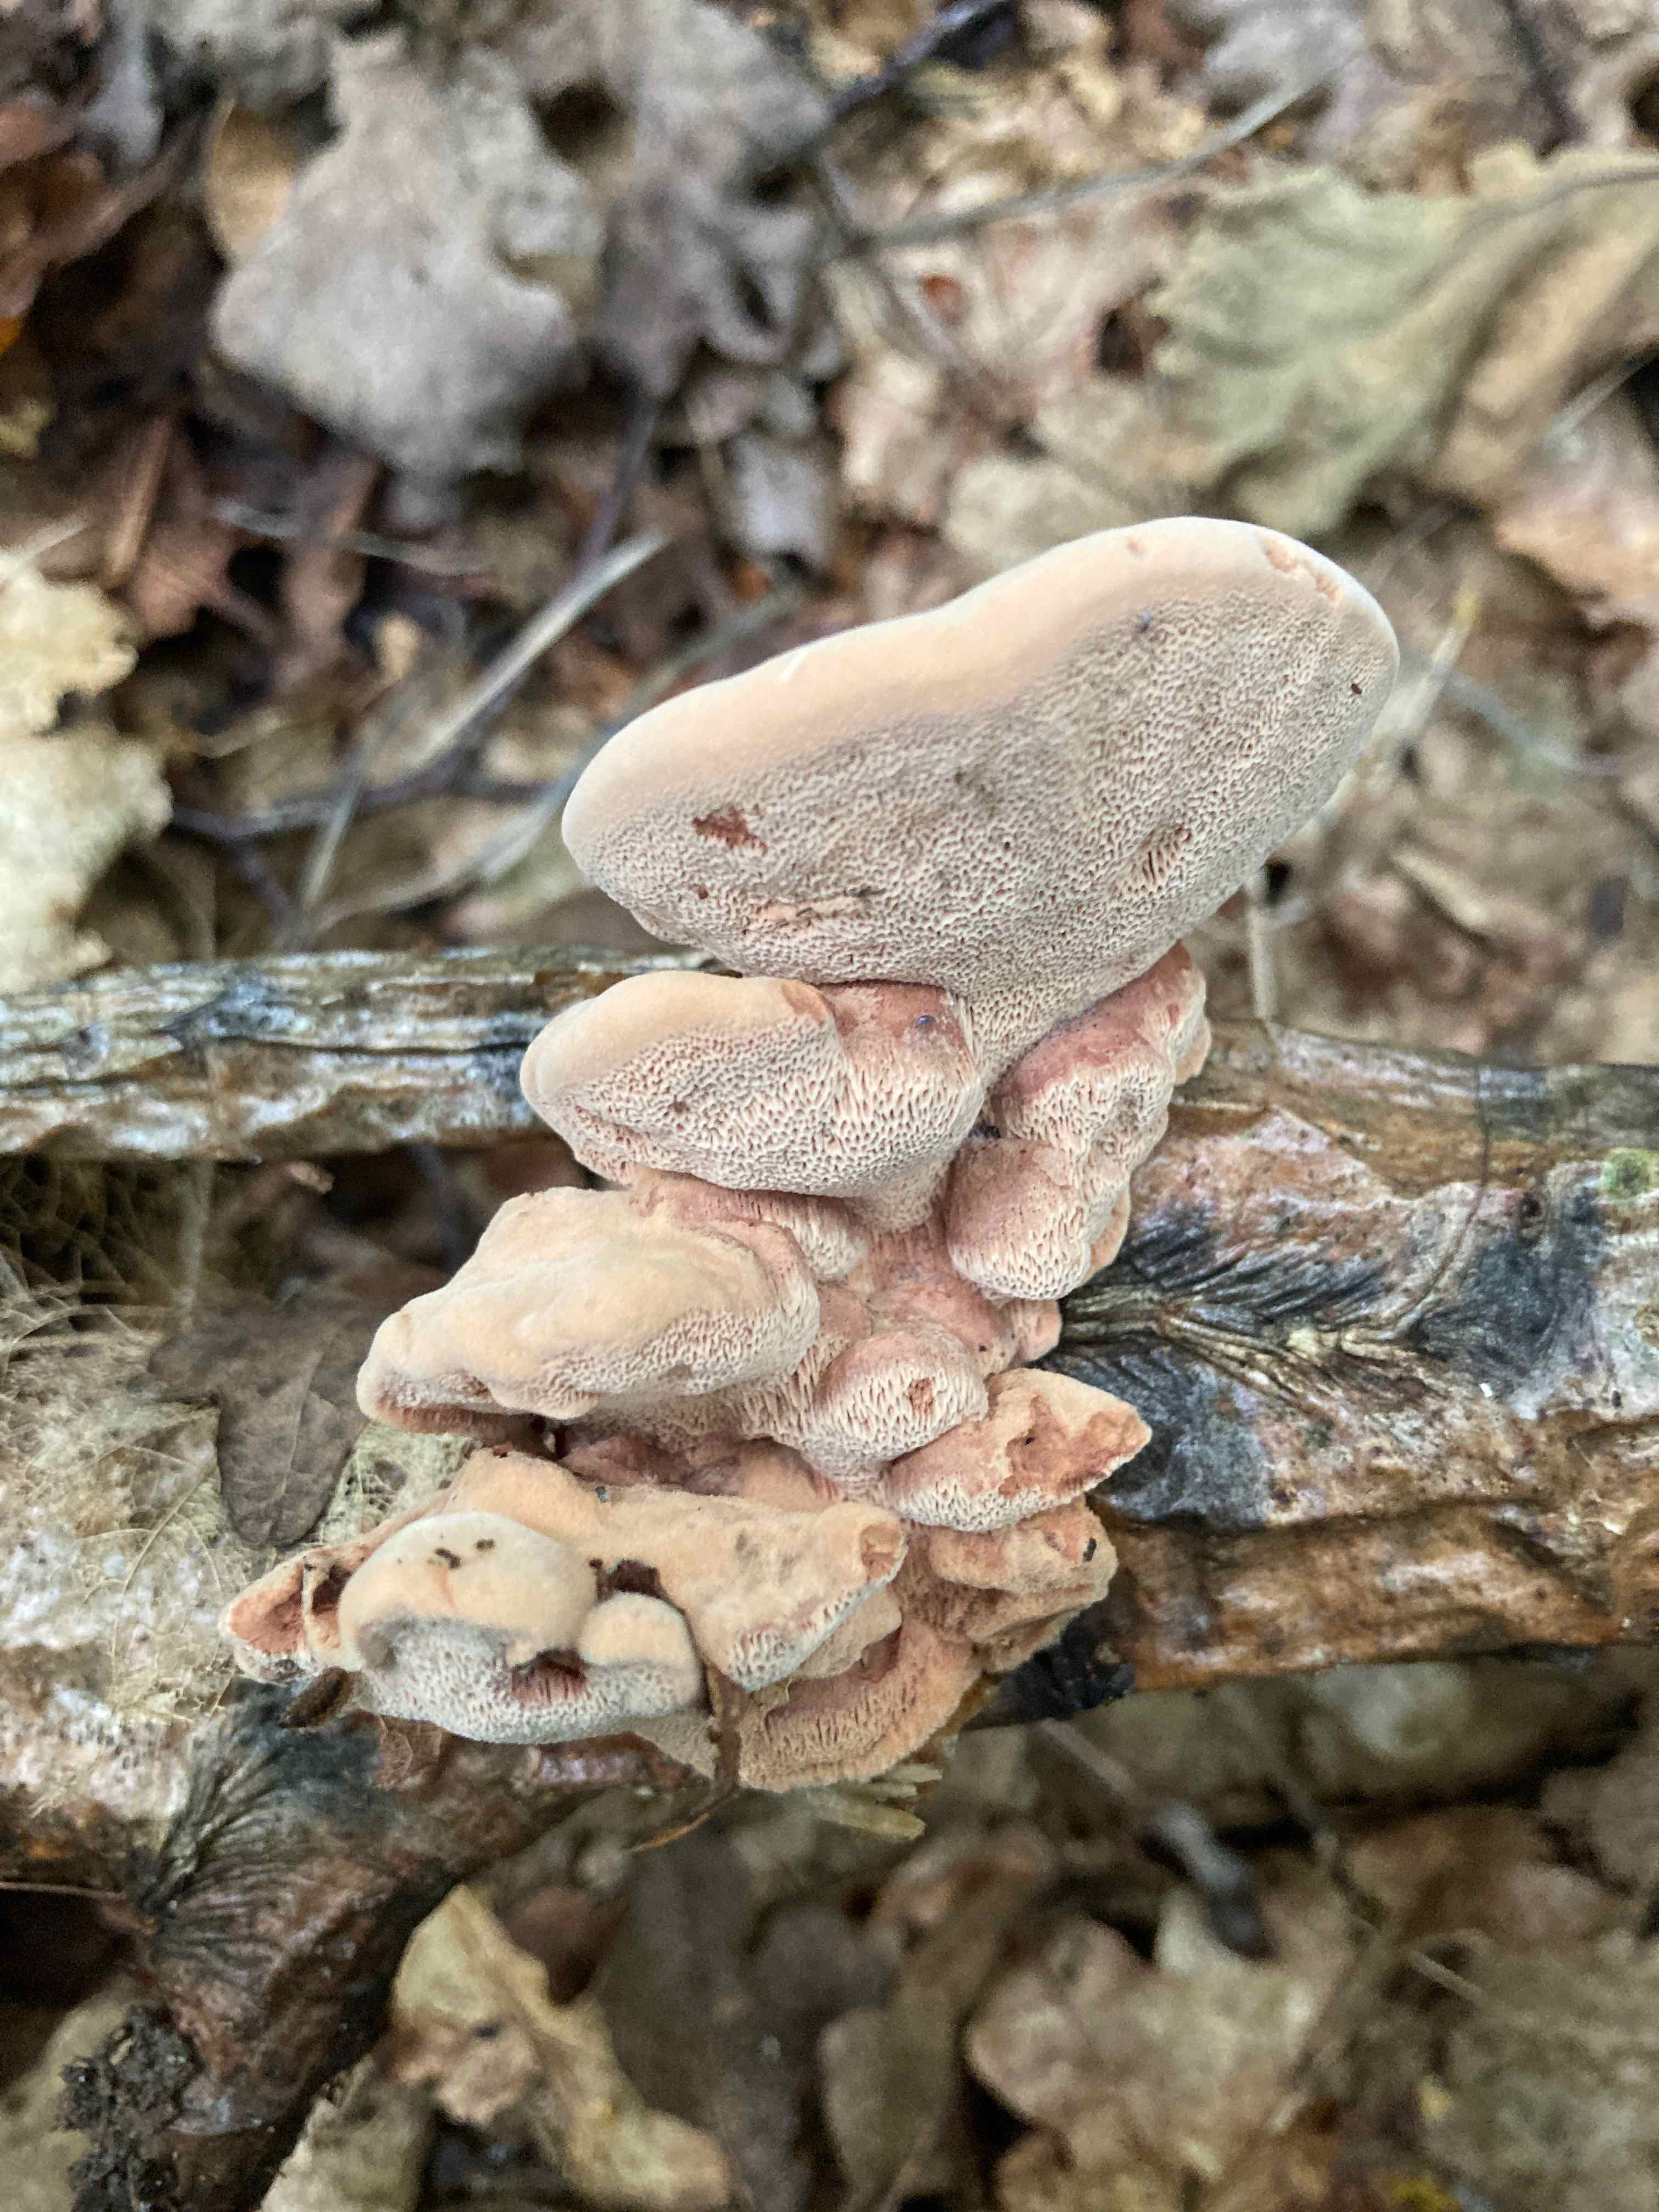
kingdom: Fungi
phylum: Basidiomycota
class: Agaricomycetes
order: Polyporales
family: Phanerochaetaceae
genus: Hapalopilus
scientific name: Hapalopilus rutilans
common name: rødlig okkerporesvamp
